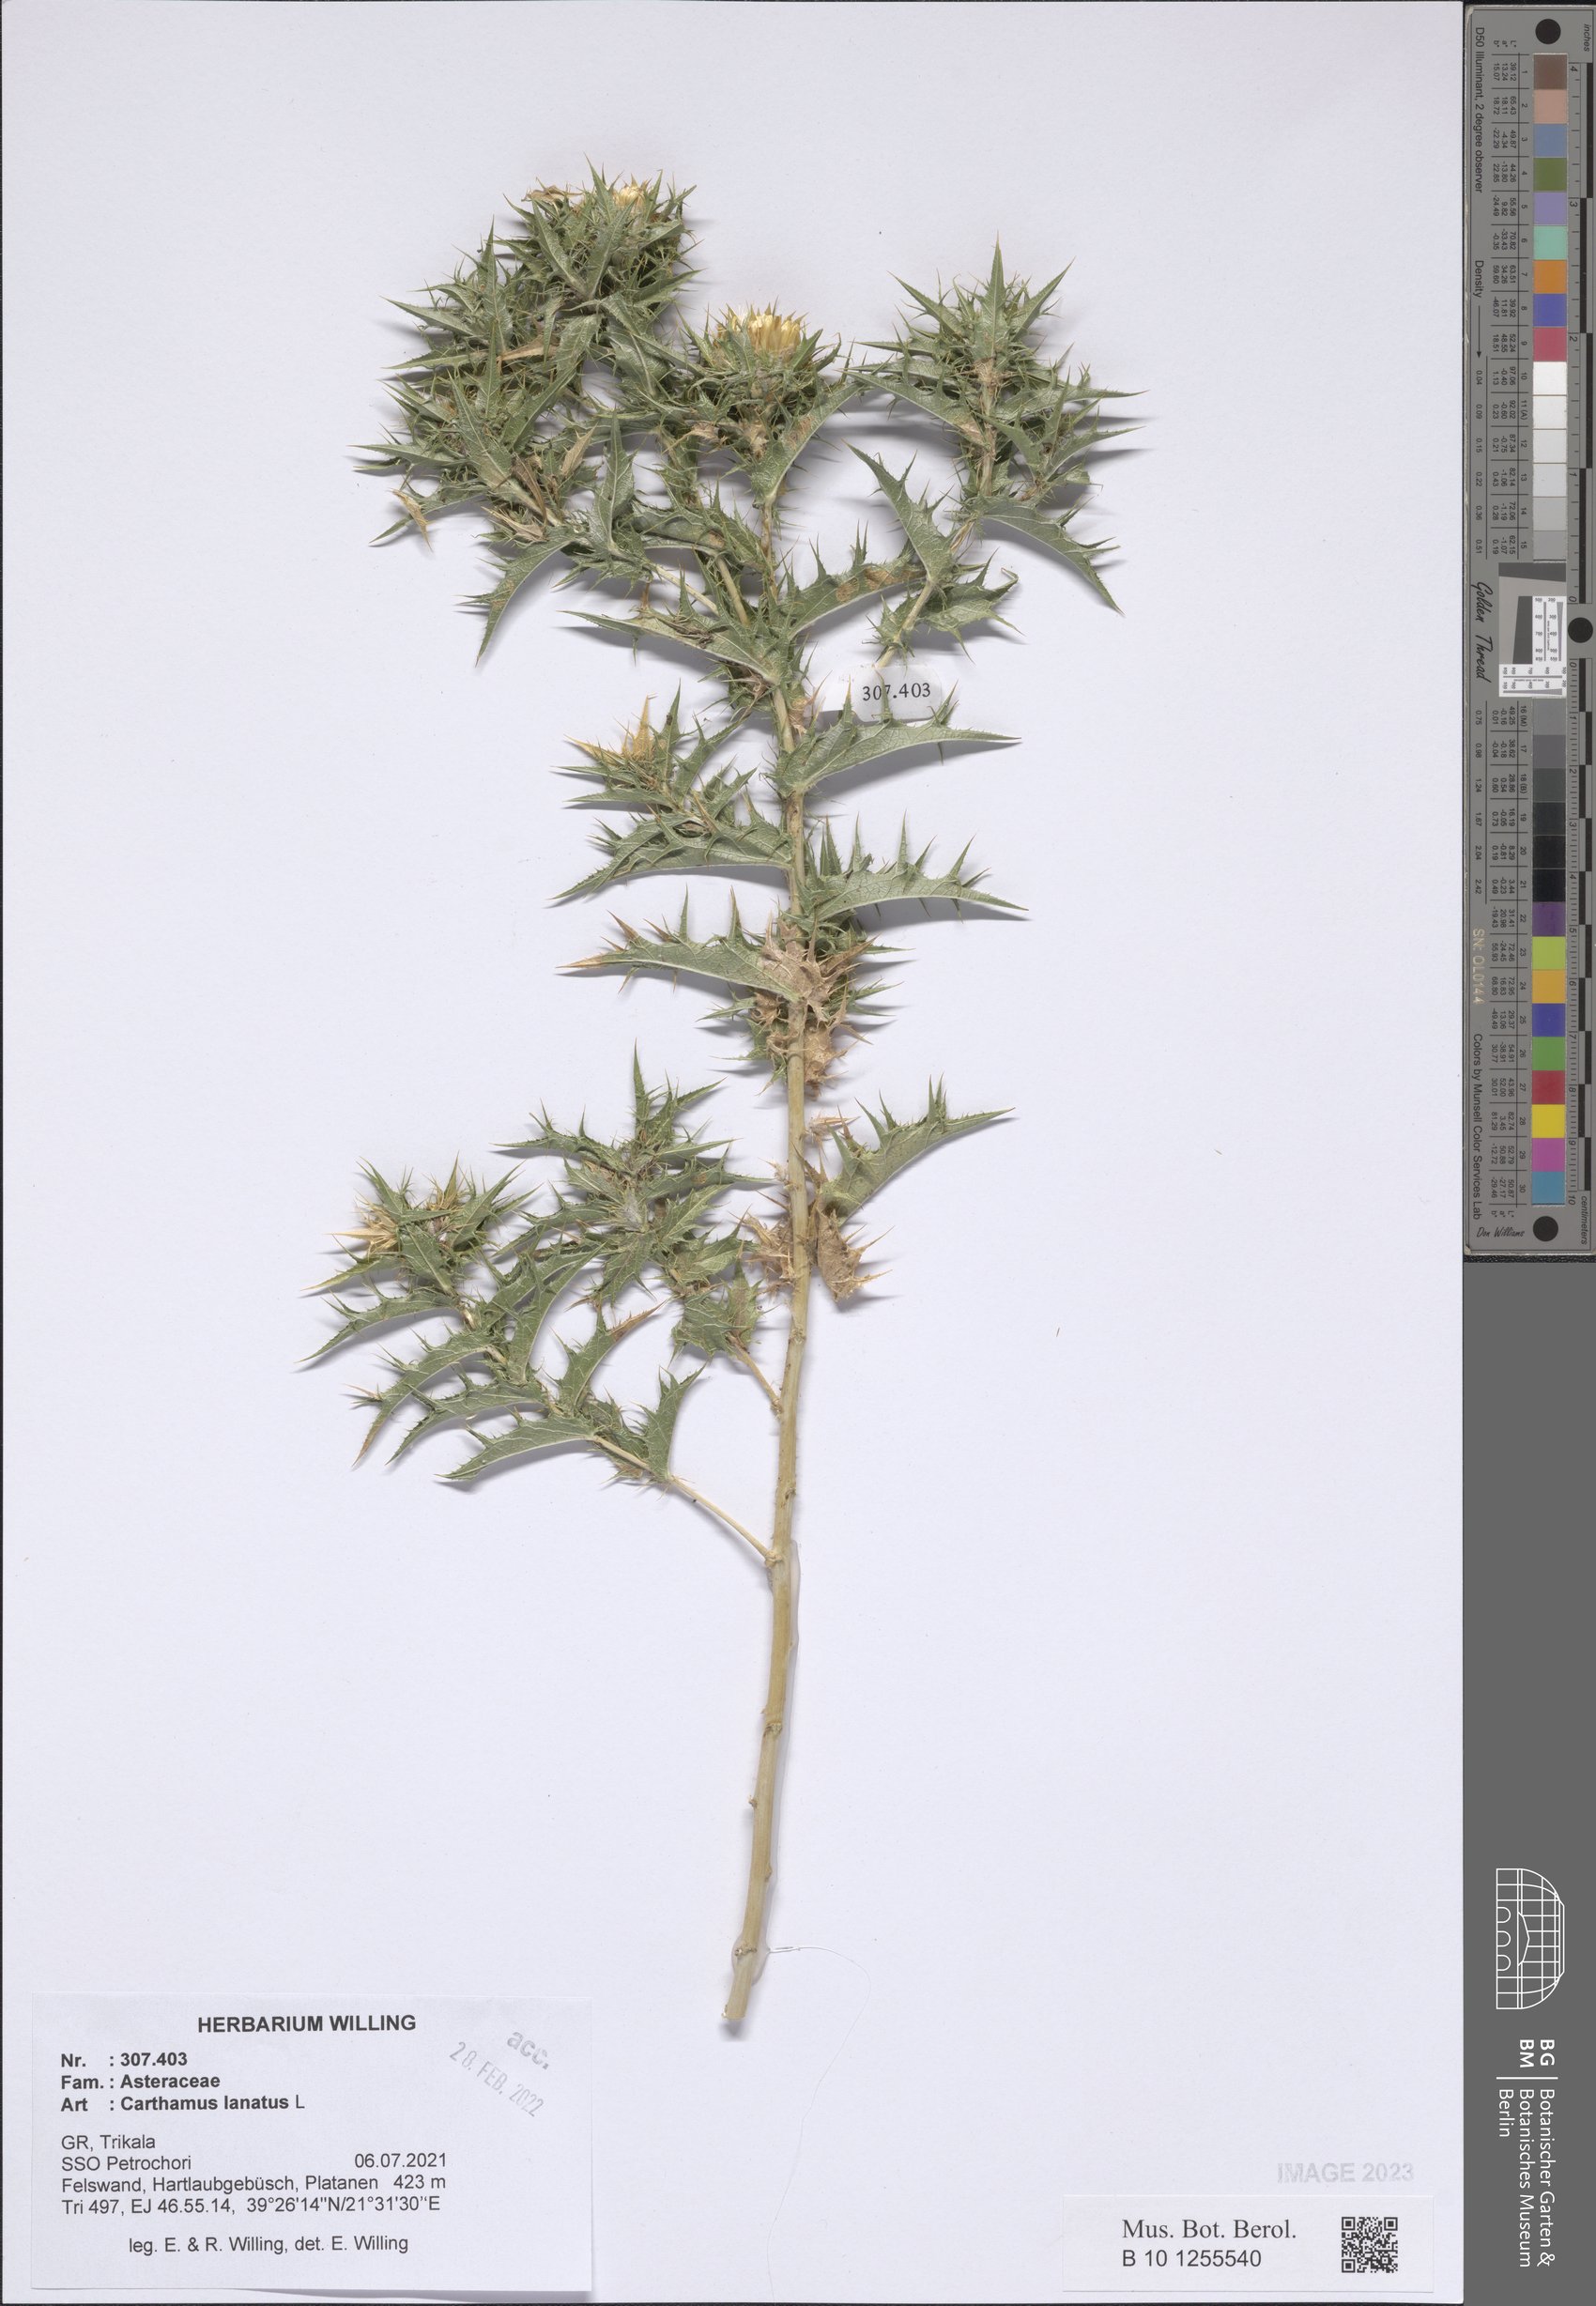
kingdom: Plantae
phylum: Tracheophyta
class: Magnoliopsida
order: Asterales
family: Asteraceae
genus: Carthamus
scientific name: Carthamus lanatus
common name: Downy safflower
